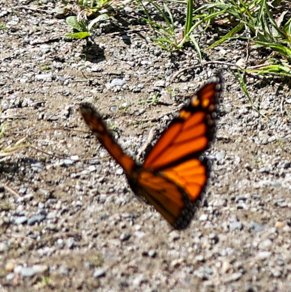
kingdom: Animalia
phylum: Arthropoda
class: Insecta
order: Lepidoptera
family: Nymphalidae
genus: Danaus
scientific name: Danaus plexippus
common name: Monarch
